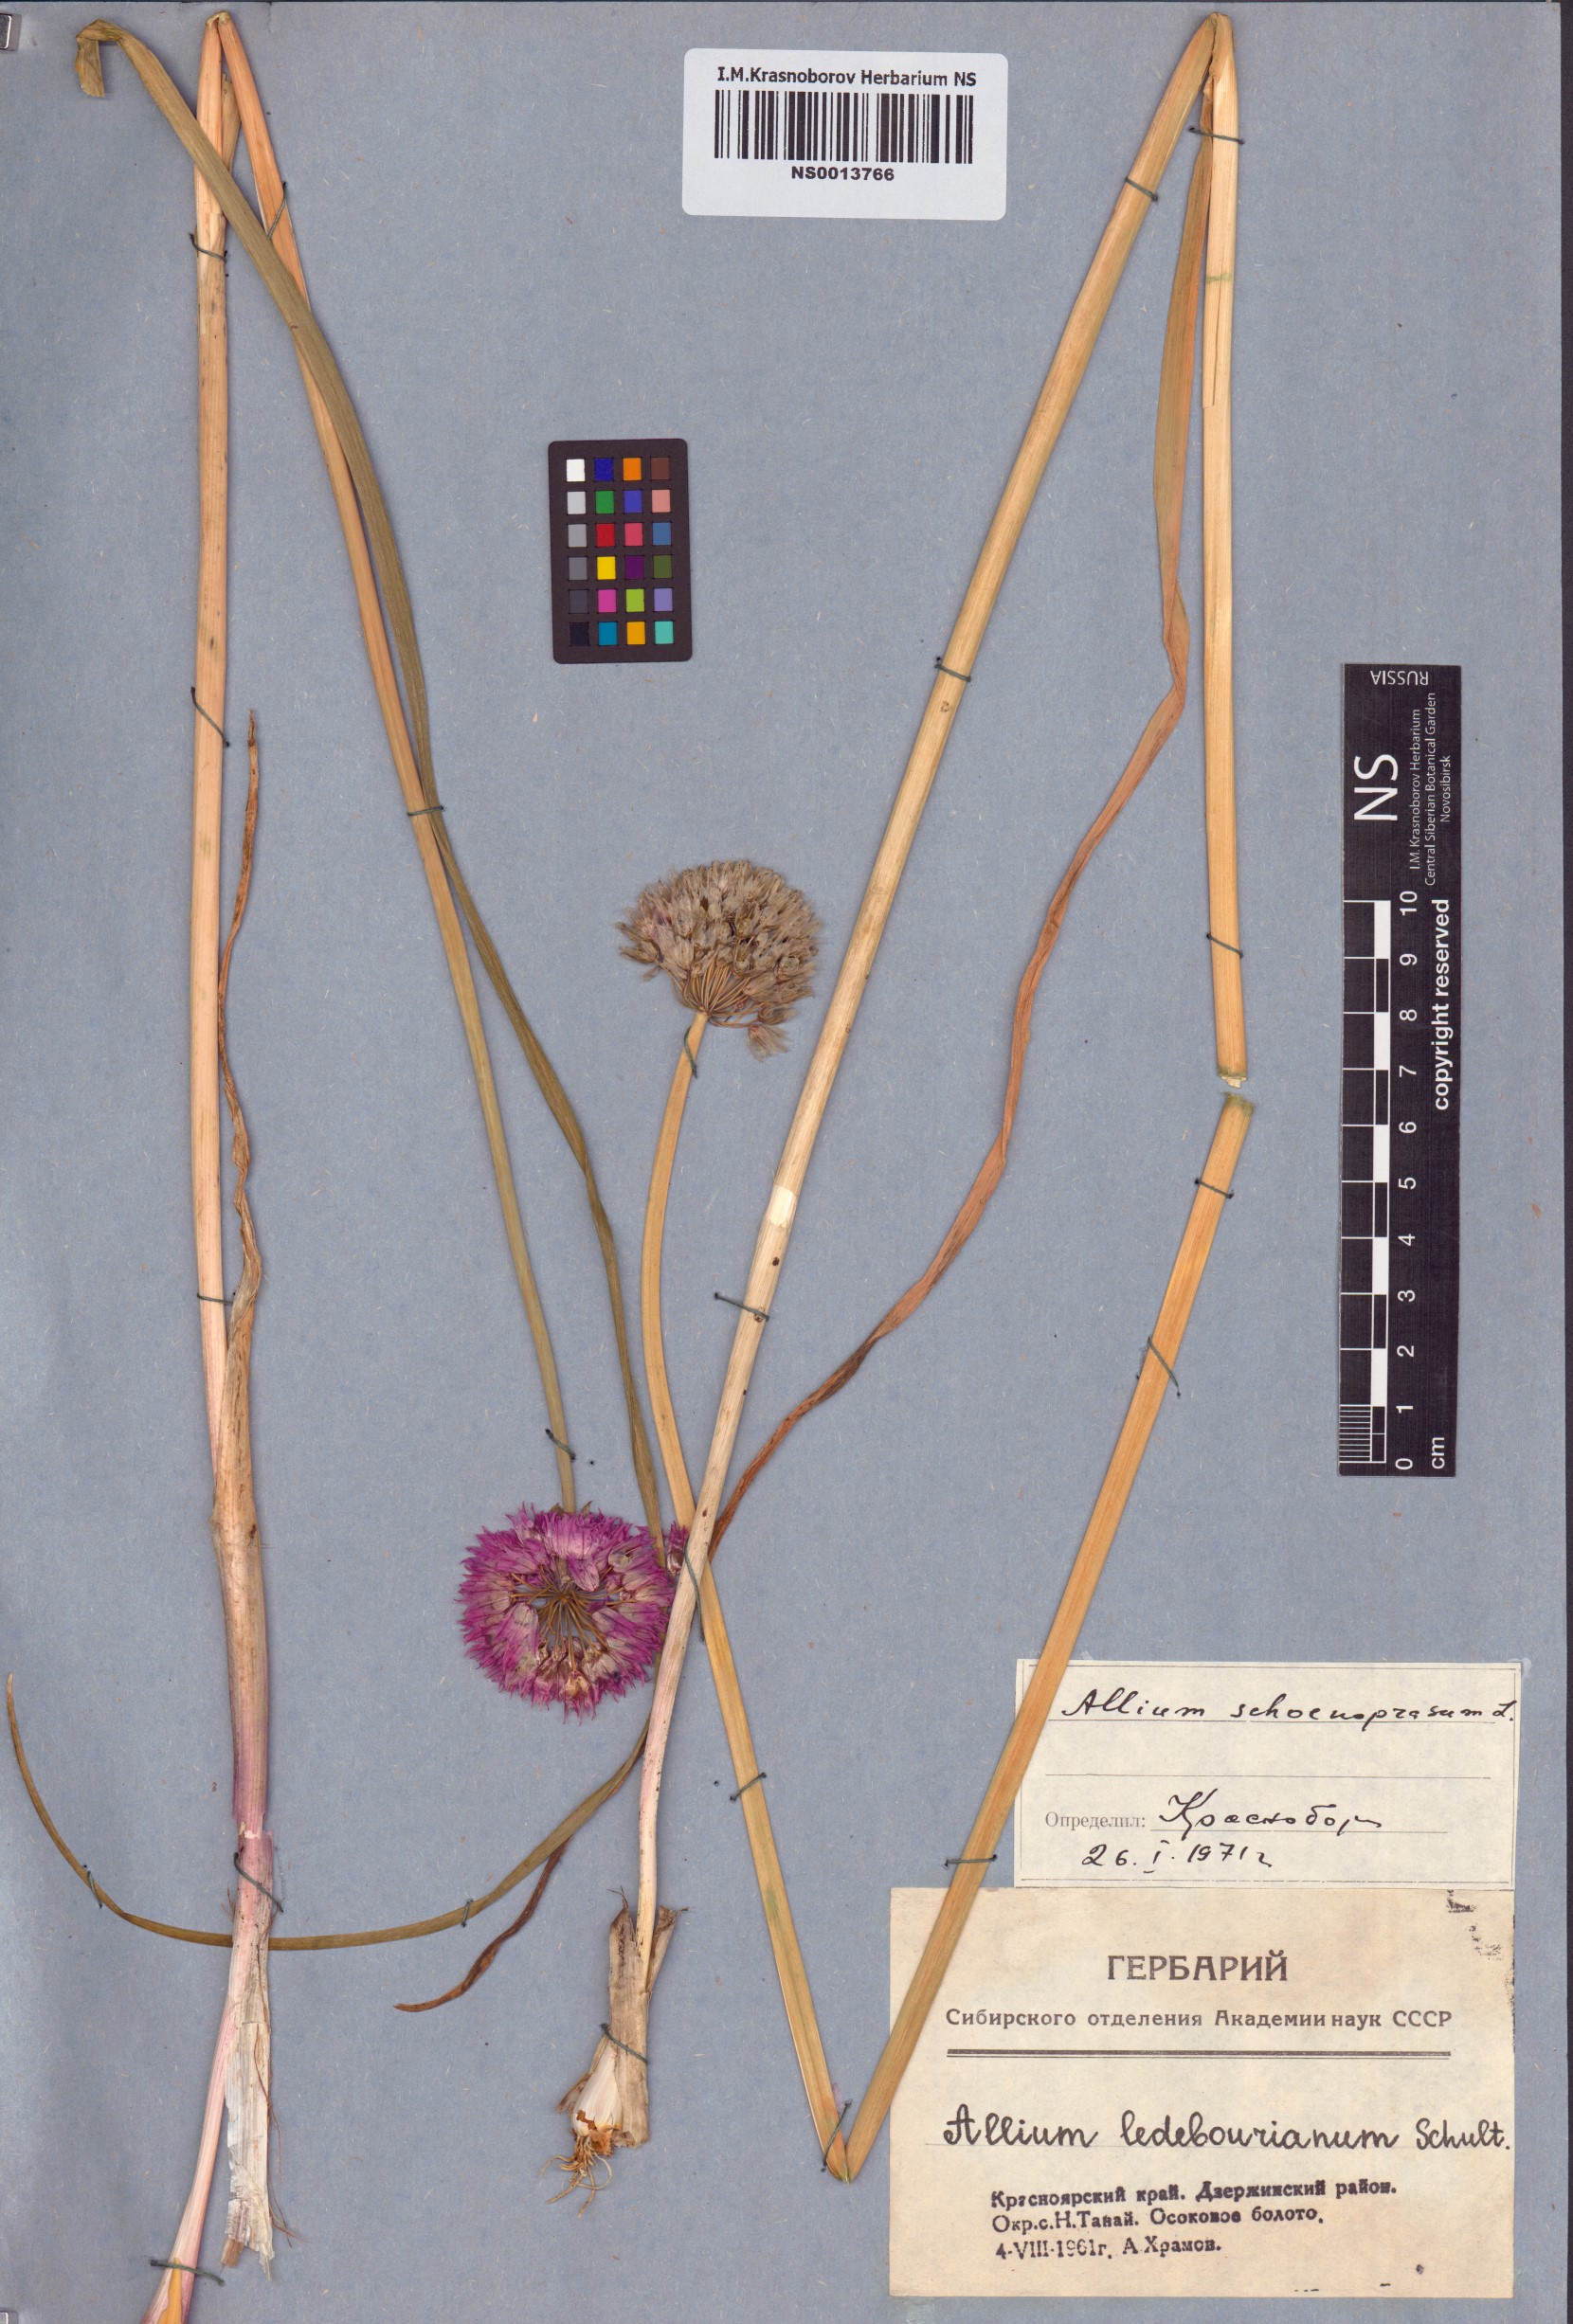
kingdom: Plantae
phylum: Tracheophyta
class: Liliopsida
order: Asparagales
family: Amaryllidaceae
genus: Allium
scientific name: Allium schoenoprasum
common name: Chives
